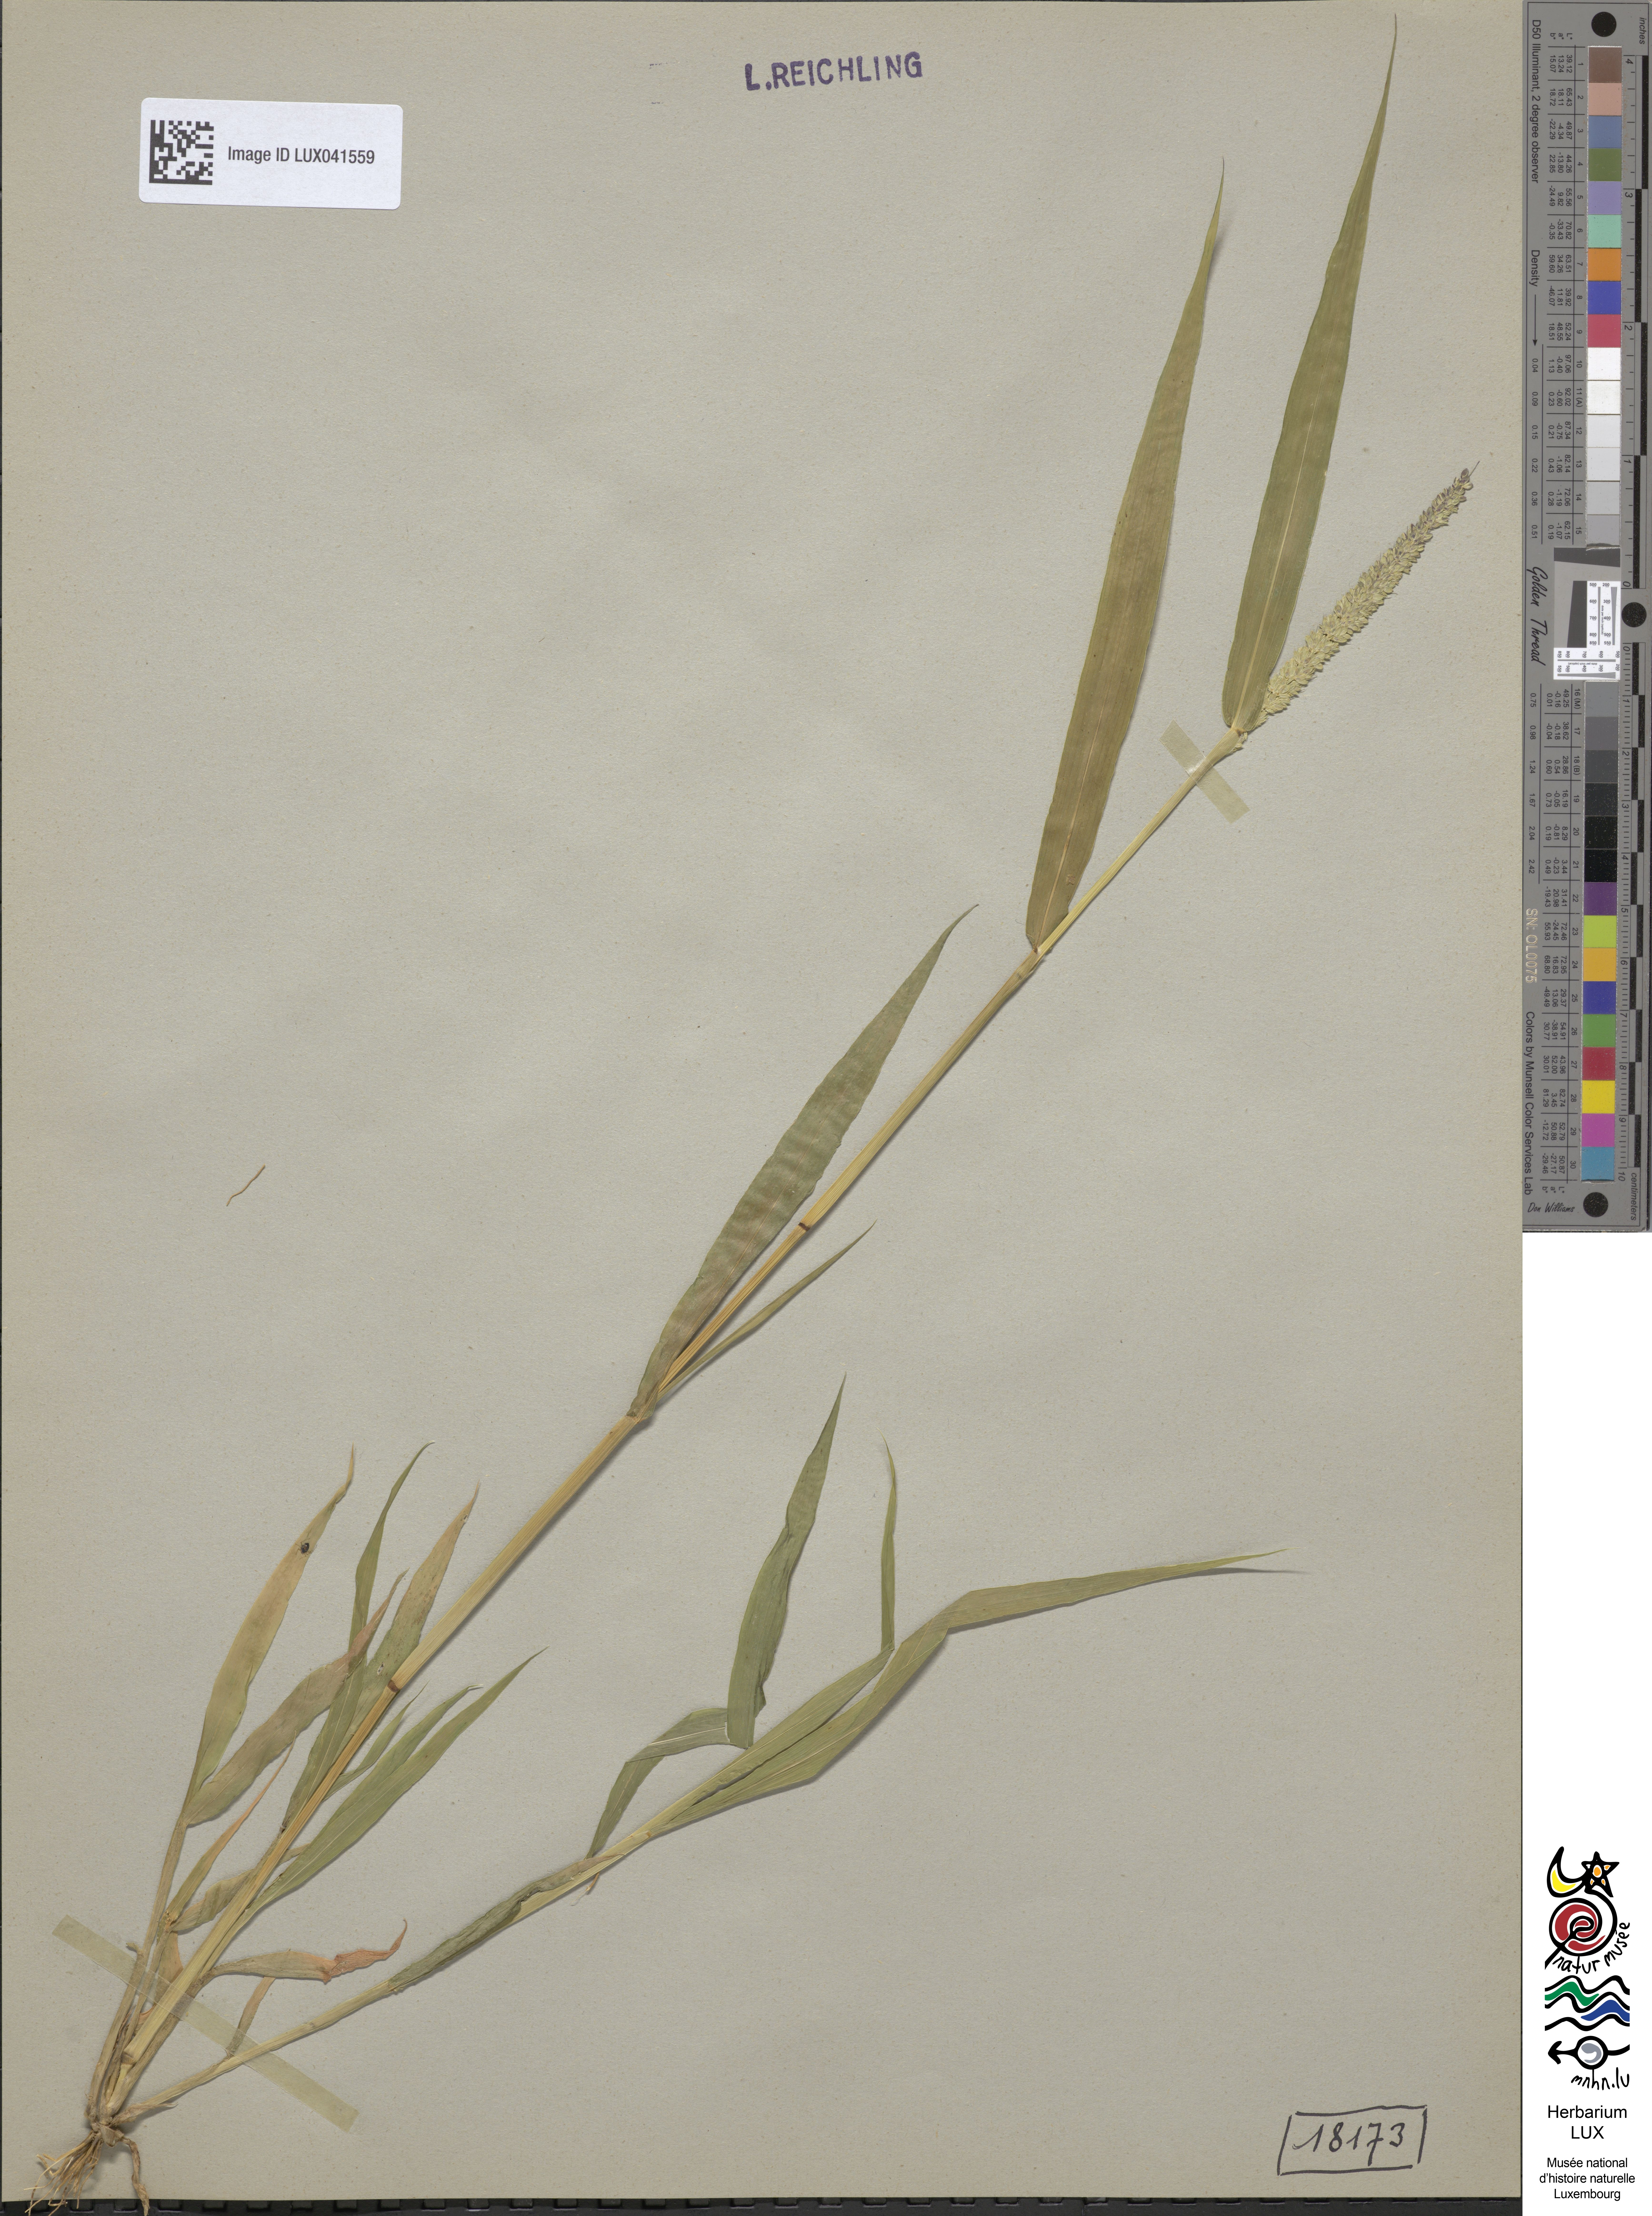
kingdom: Plantae
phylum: Tracheophyta
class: Liliopsida
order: Poales
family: Poaceae
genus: Setaria
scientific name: Setaria verticillata
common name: Hooked bristlegrass
